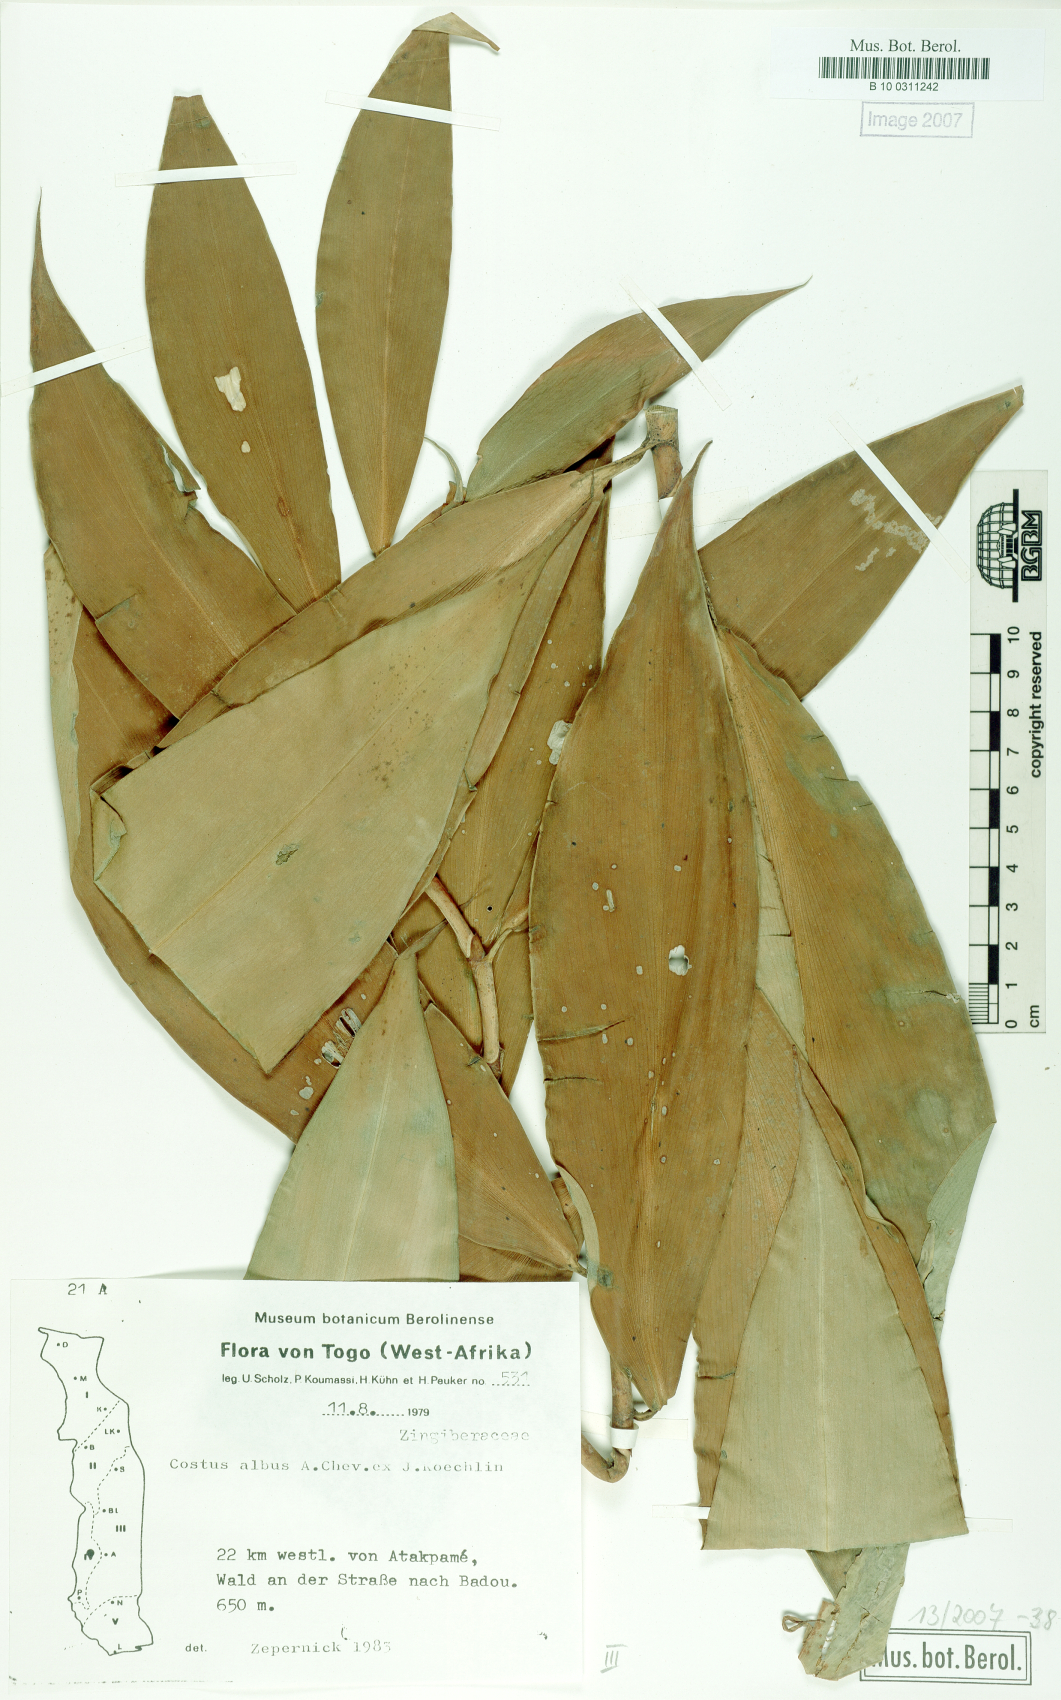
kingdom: Plantae
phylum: Tracheophyta
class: Liliopsida
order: Zingiberales
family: Costaceae
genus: Costus
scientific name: Costus dubius
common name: Costus
